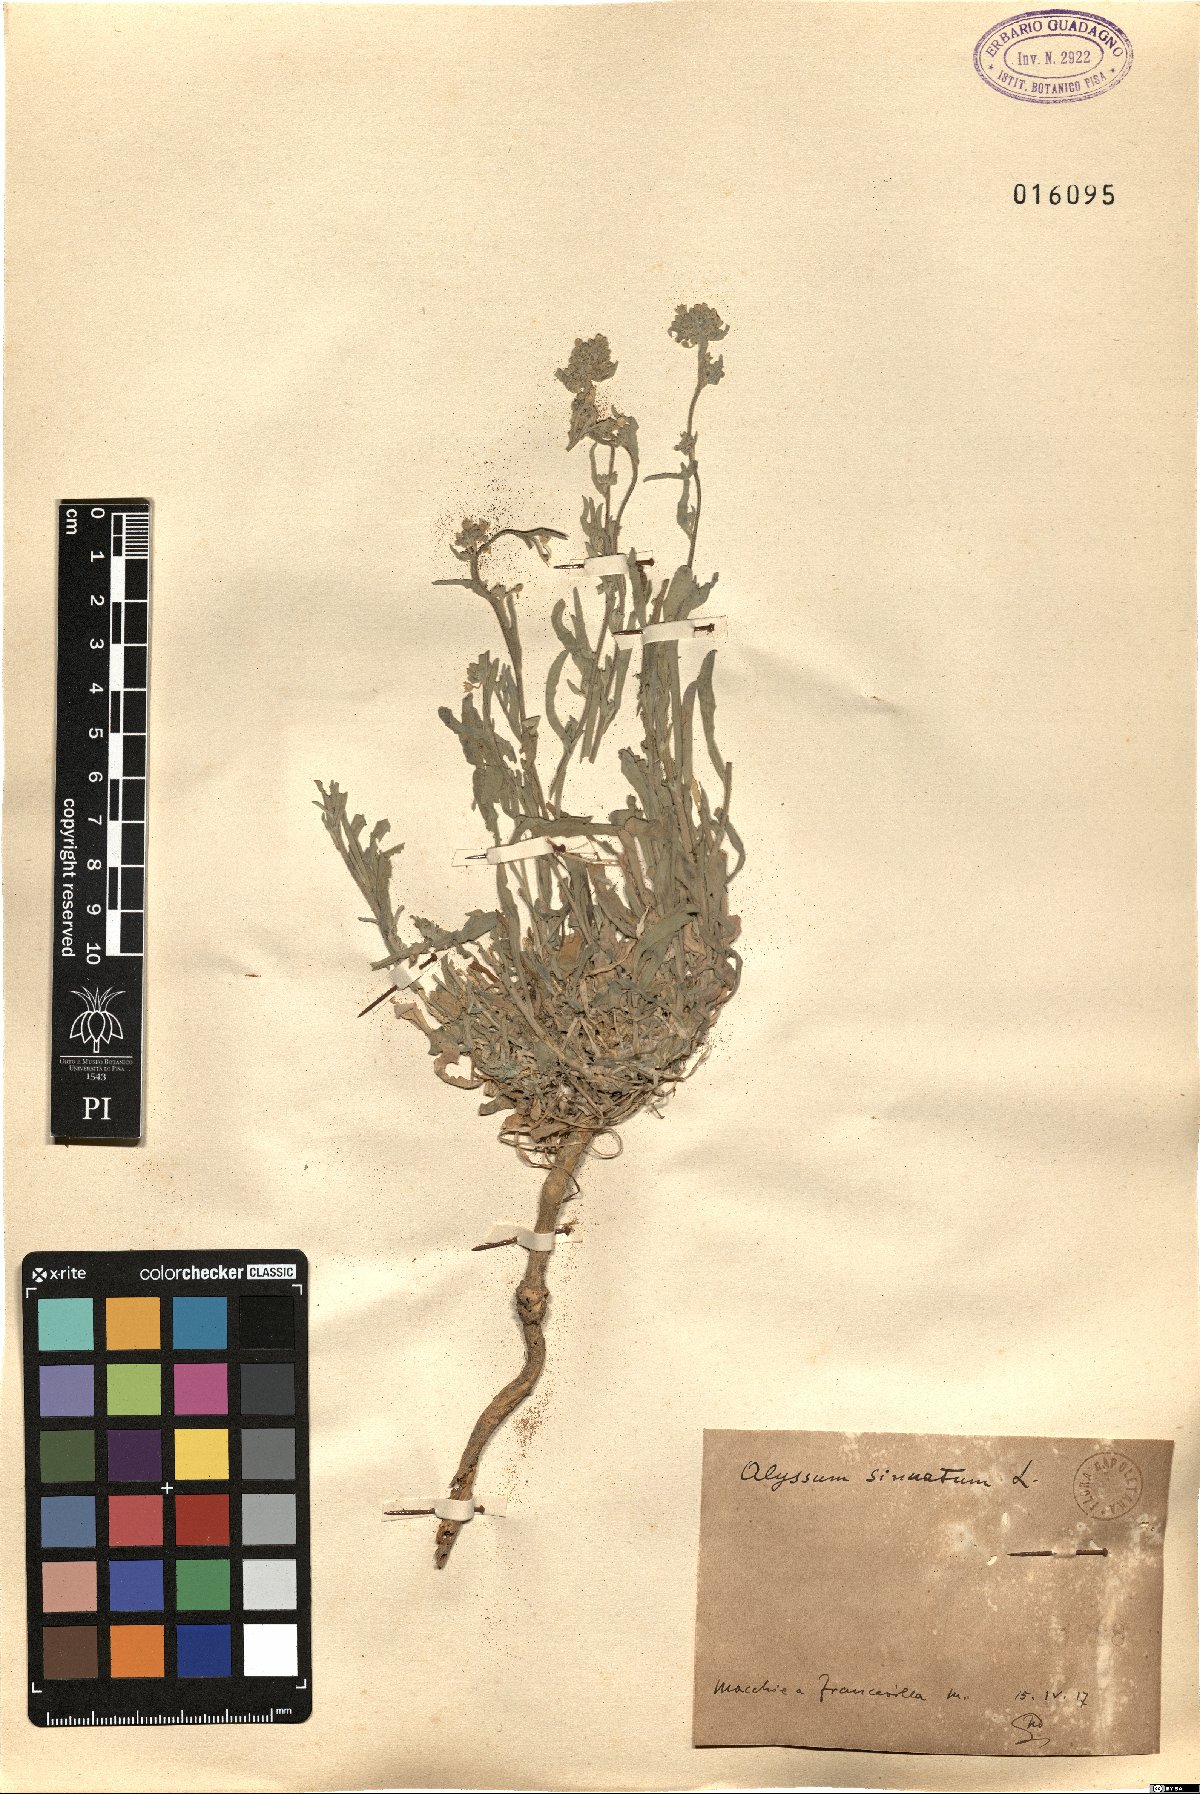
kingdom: Plantae
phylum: Tracheophyta
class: Magnoliopsida
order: Brassicales
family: Brassicaceae
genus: Aurinia
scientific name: Aurinia sinuata
